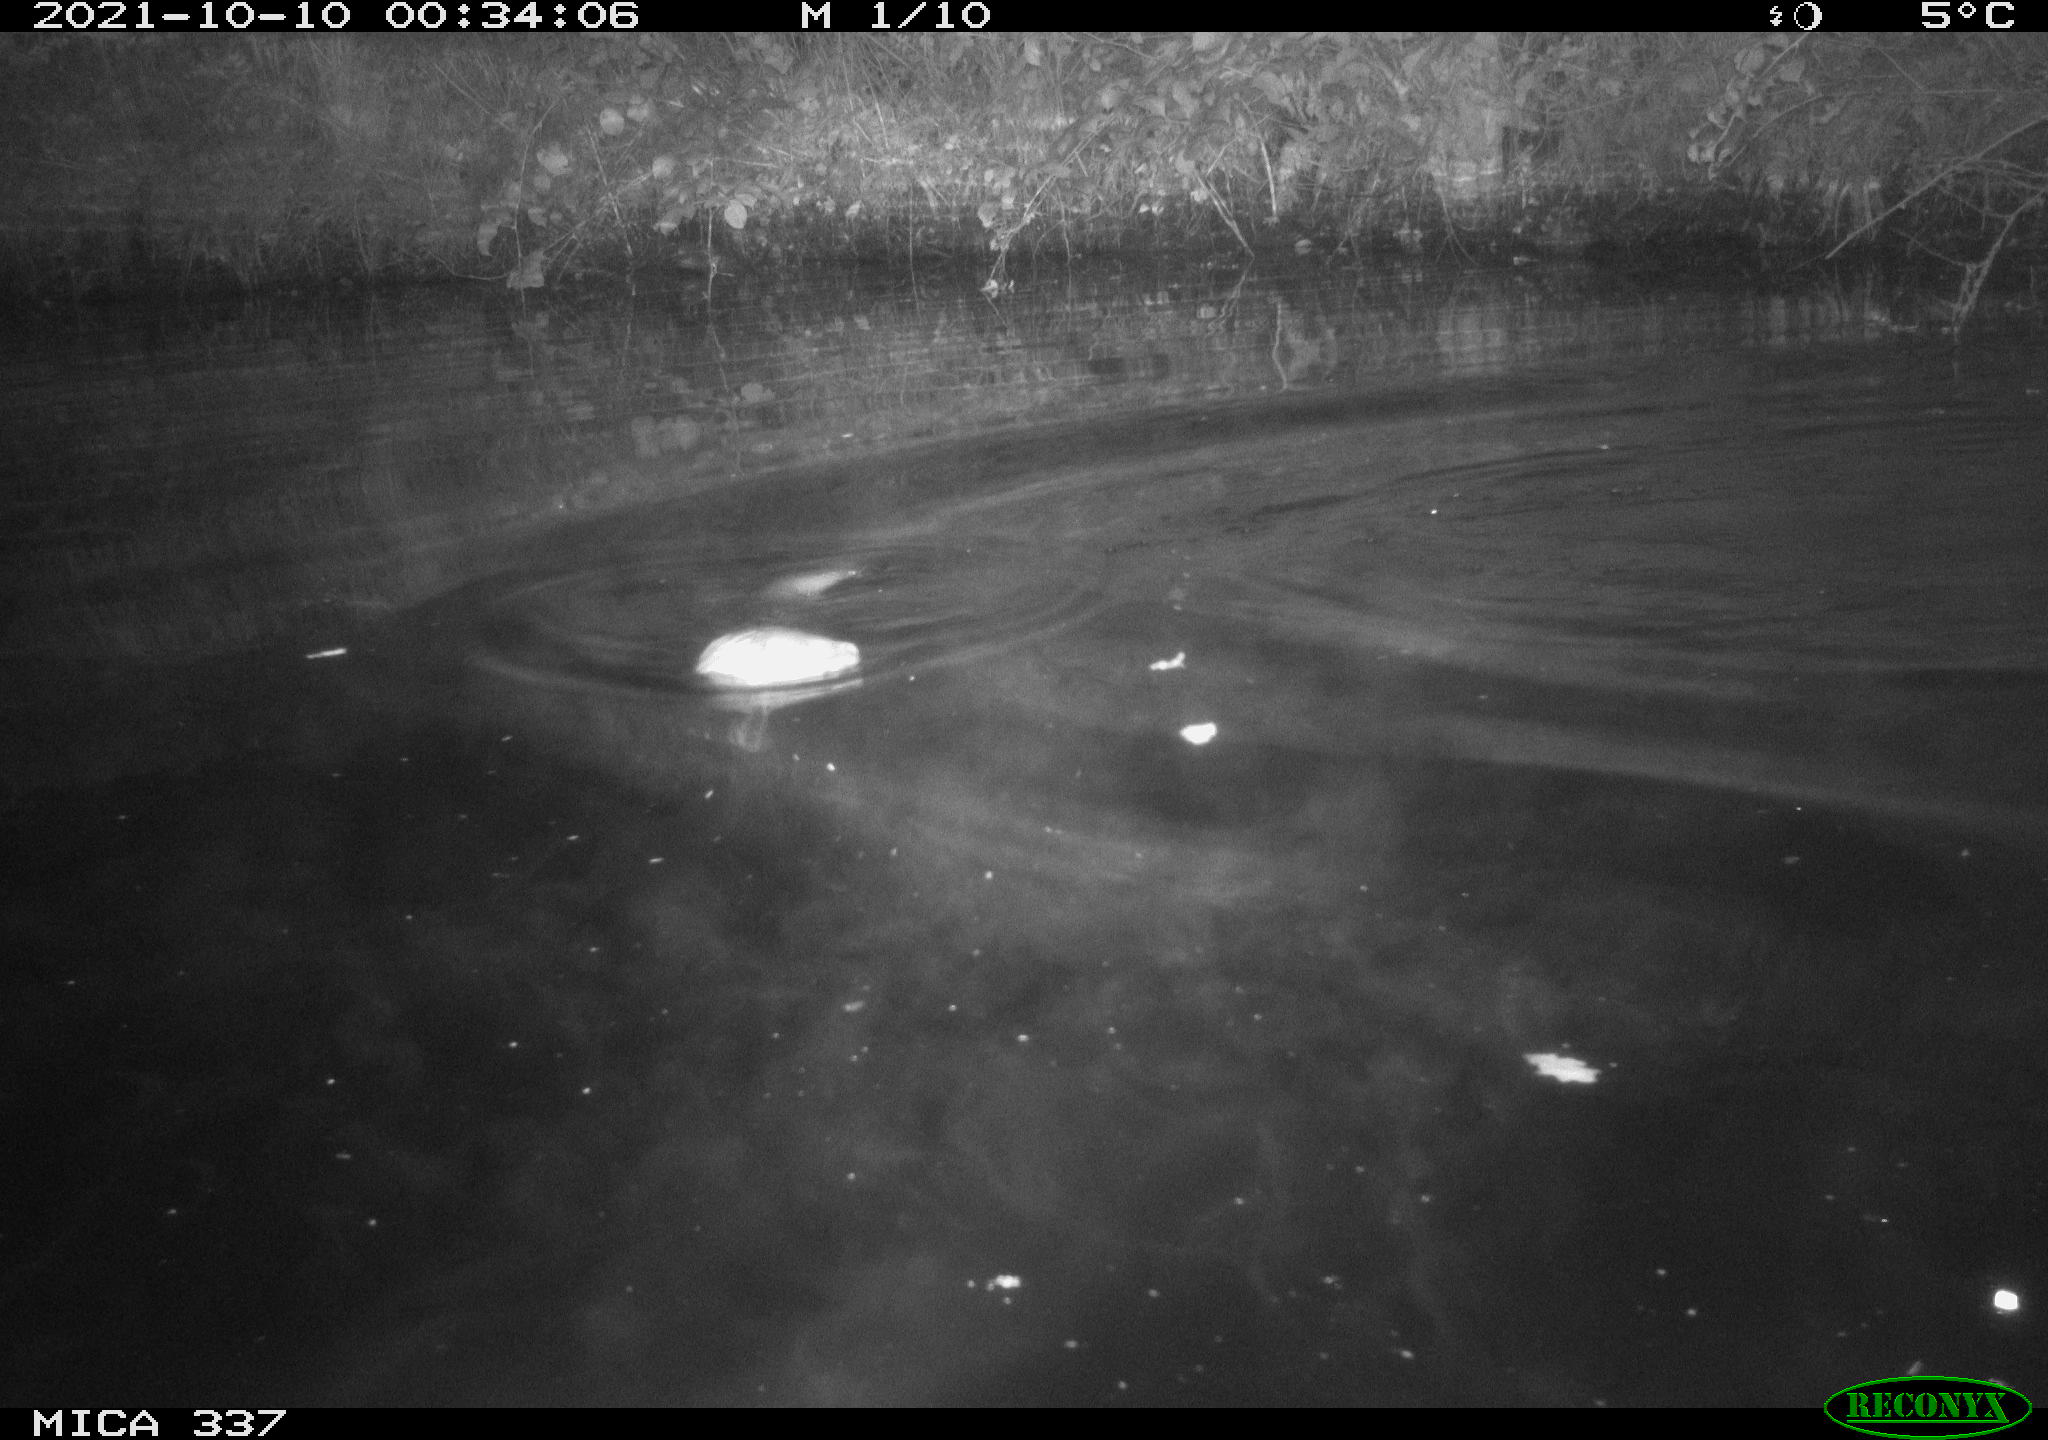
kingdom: Animalia
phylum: Chordata
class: Mammalia
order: Carnivora
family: Mustelidae
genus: Lutra
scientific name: Lutra lutra
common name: European otter
